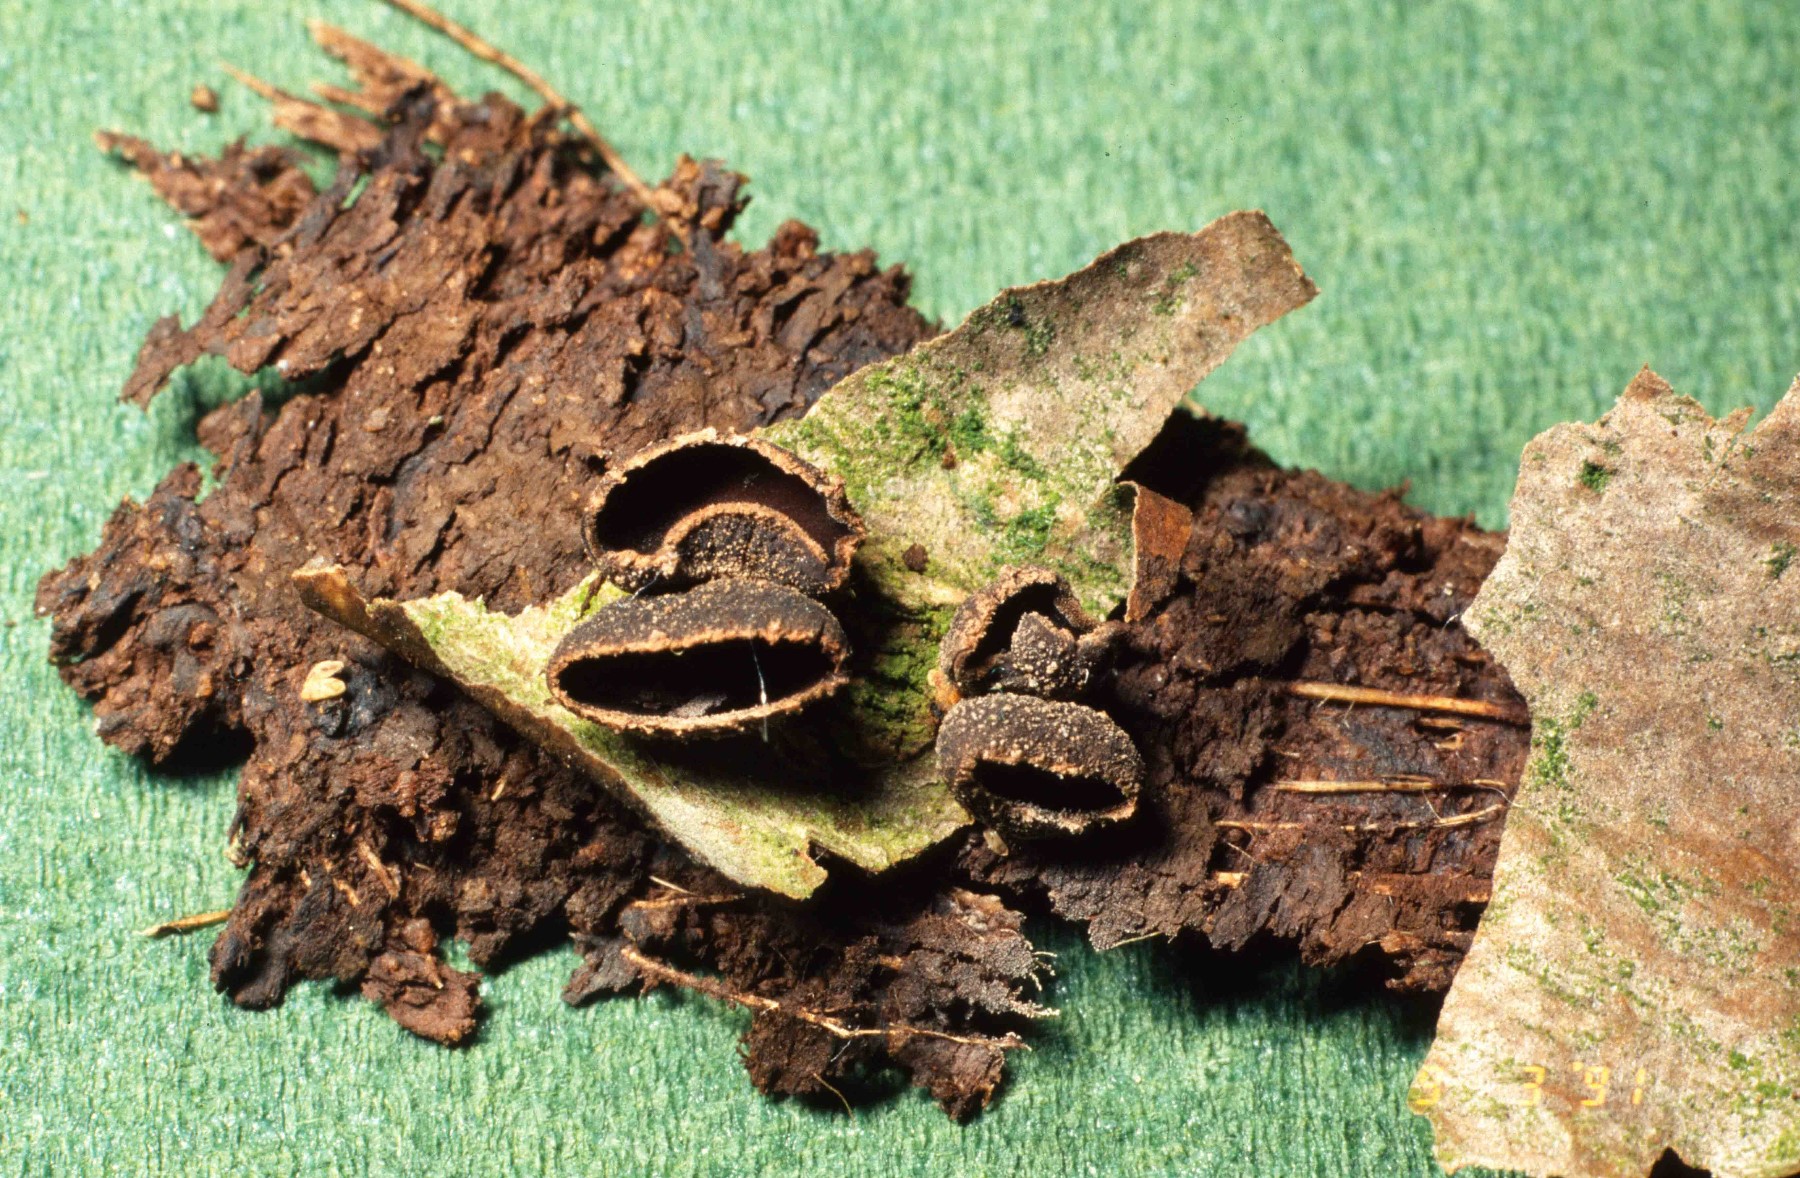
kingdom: Fungi
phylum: Ascomycota
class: Leotiomycetes
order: Helotiales
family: Sclerotiniaceae
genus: Sclerencoelia
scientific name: Sclerencoelia fascicularis
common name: poppel-læderskive
